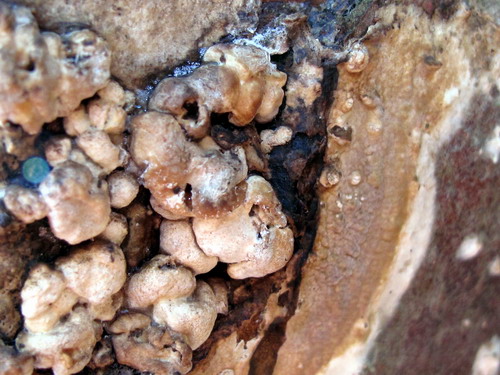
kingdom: Fungi
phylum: Ascomycota
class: Sordariomycetes
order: Xylariales
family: Hypoxylaceae
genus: Nodulisporium
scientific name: Nodulisporium cecidiogenes
